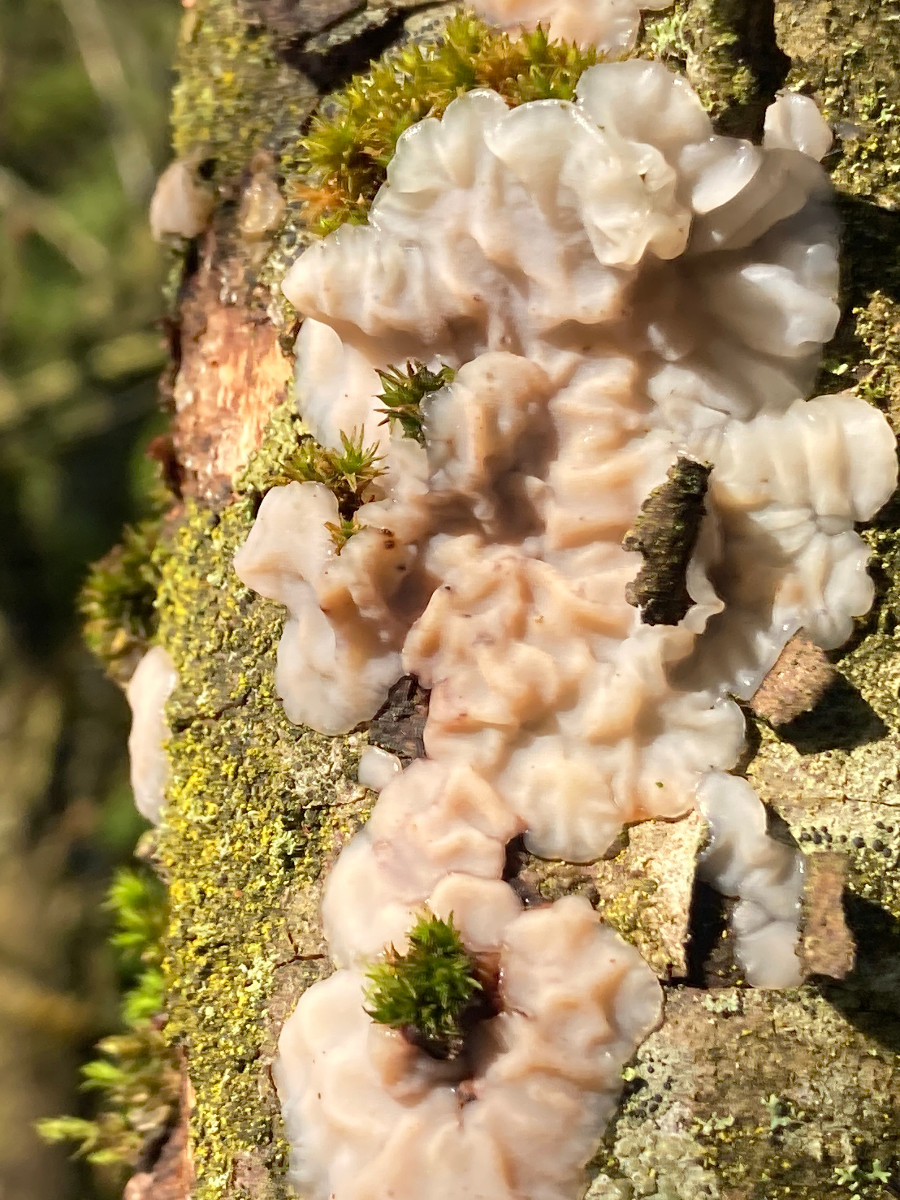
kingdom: Fungi
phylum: Basidiomycota
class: Agaricomycetes
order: Auriculariales
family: Auriculariaceae
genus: Exidia
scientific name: Exidia thuretiana
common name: hvidlig bævretop
